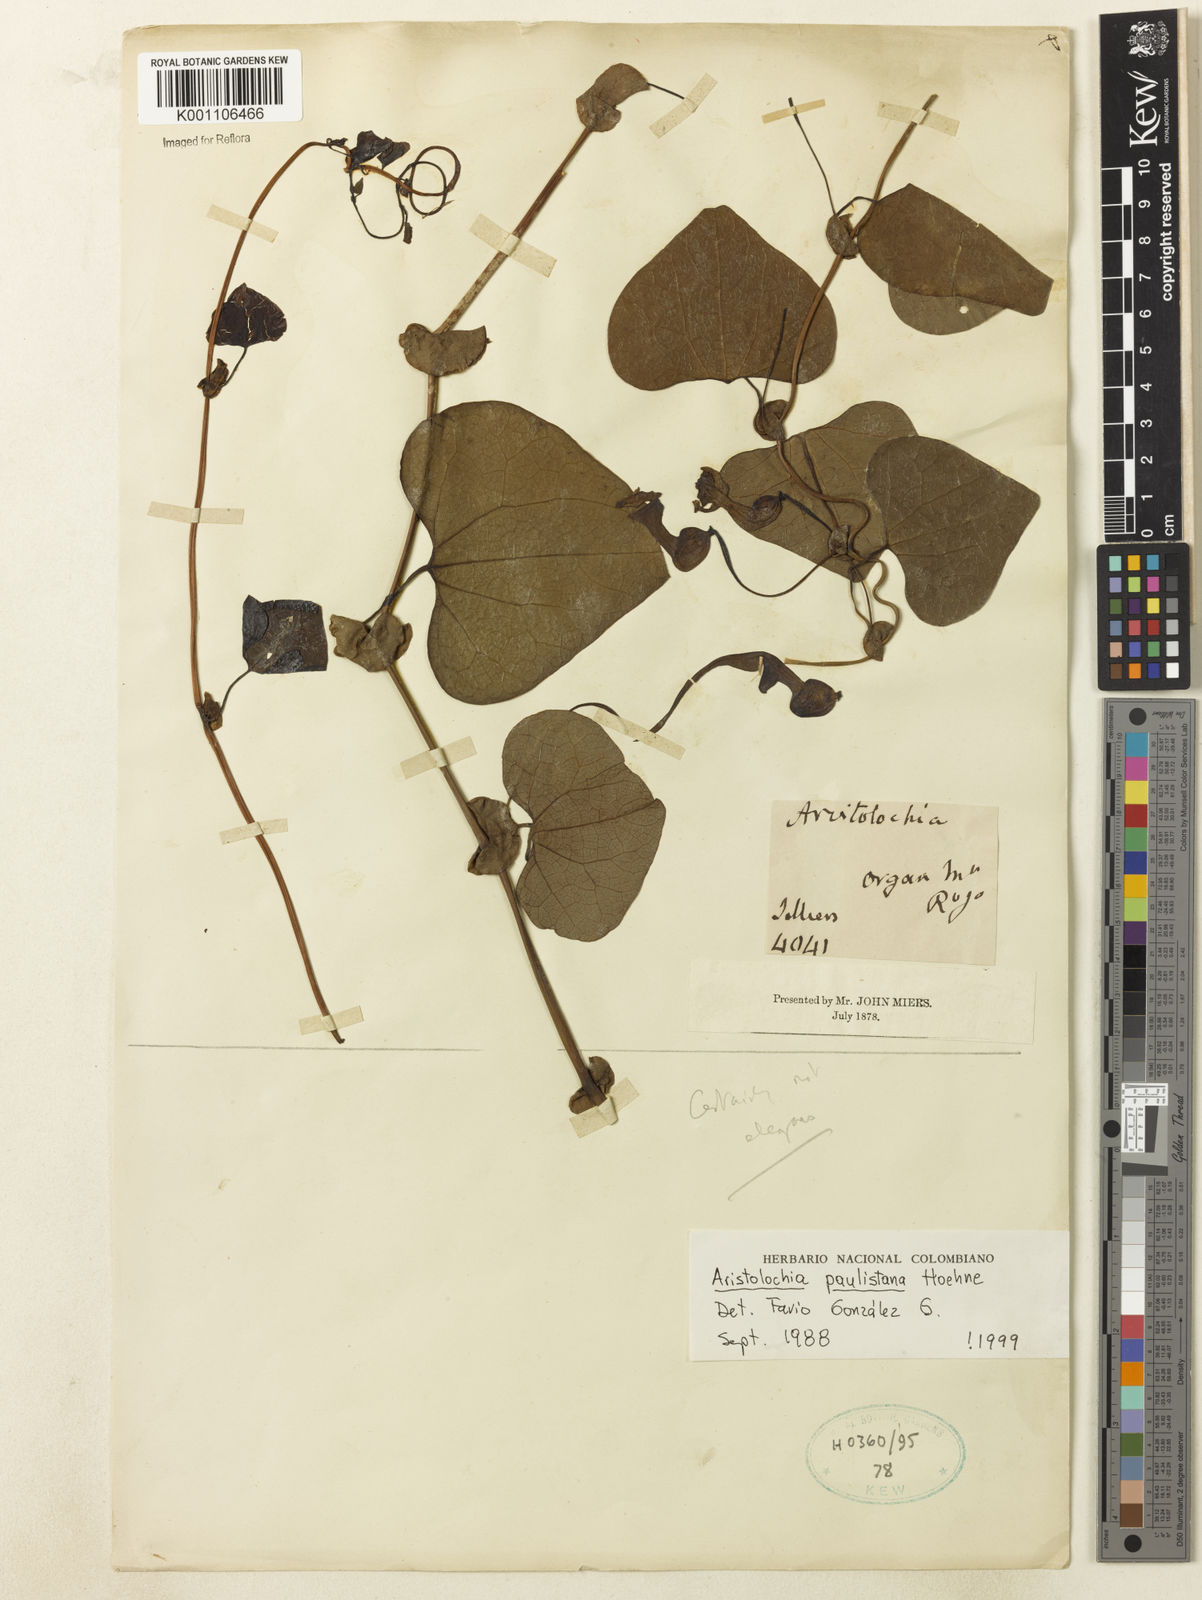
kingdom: Plantae
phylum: Tracheophyta
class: Magnoliopsida
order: Piperales
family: Aristolochiaceae
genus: Aristolochia
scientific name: Aristolochia paulistana
